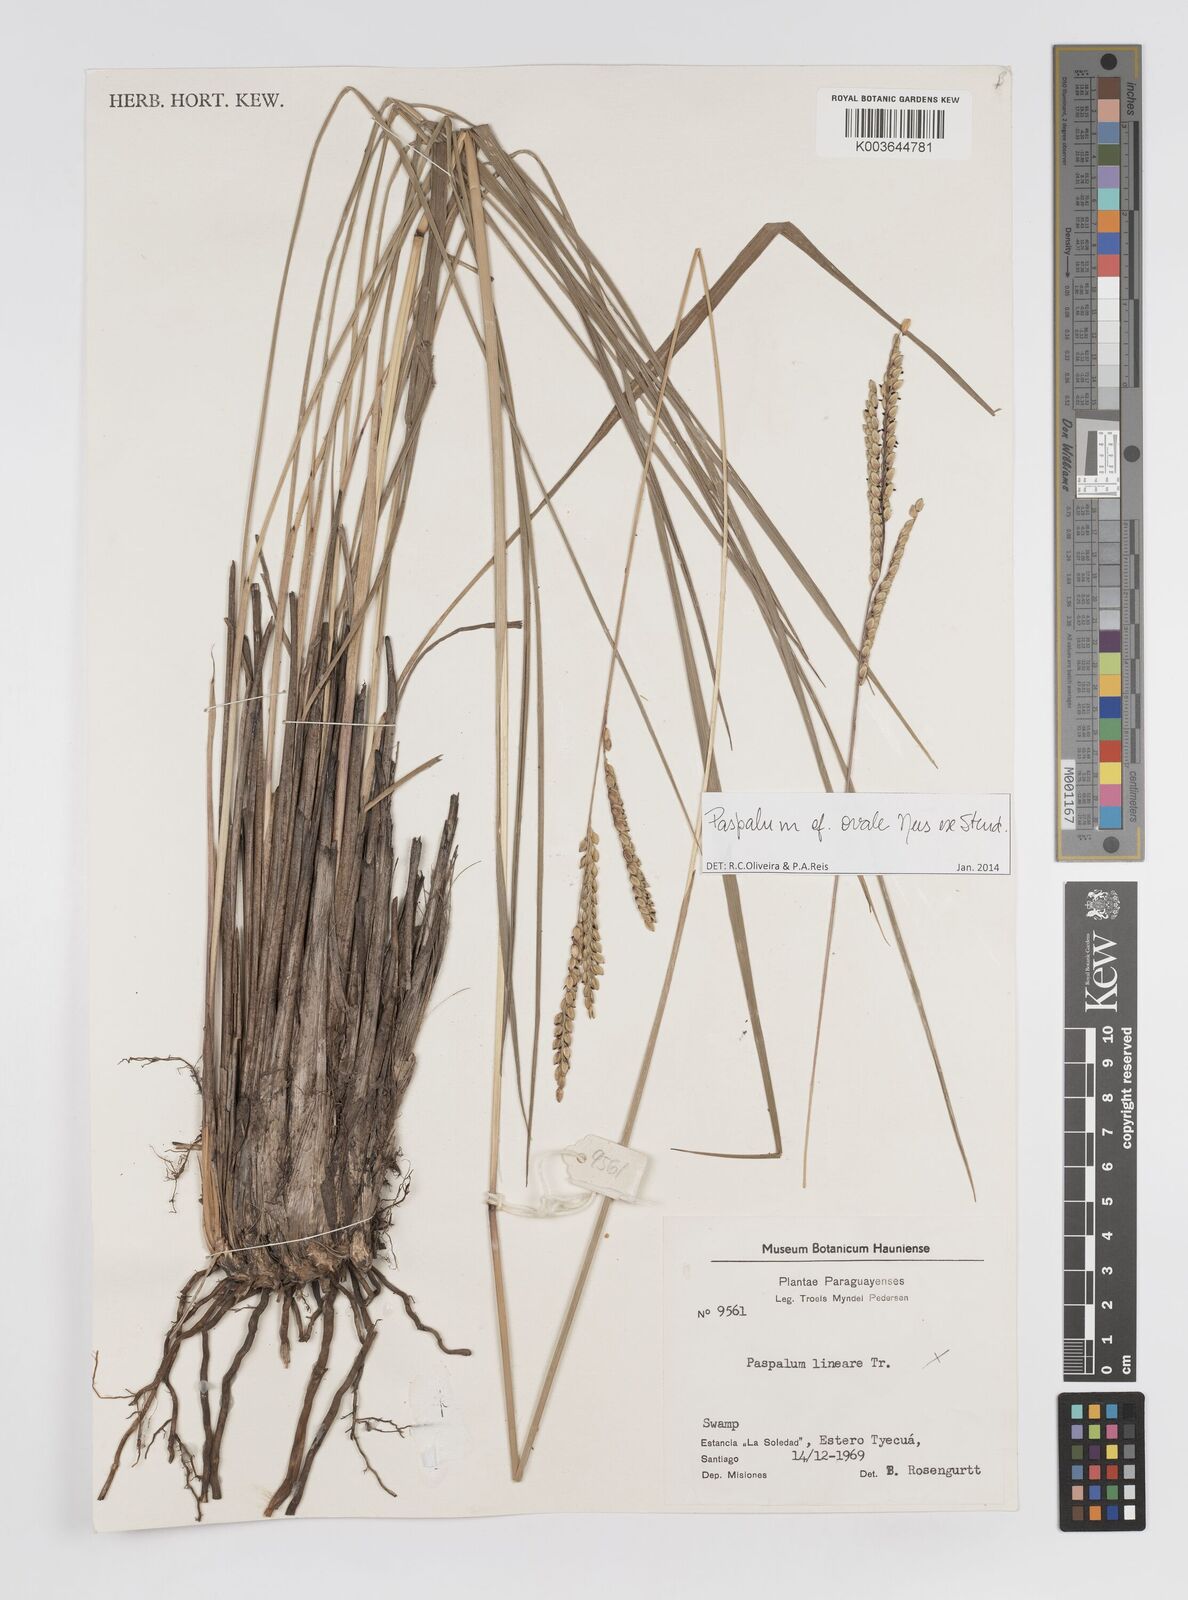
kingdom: Plantae
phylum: Tracheophyta
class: Liliopsida
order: Poales
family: Poaceae
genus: Paspalum
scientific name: Paspalum ovale
